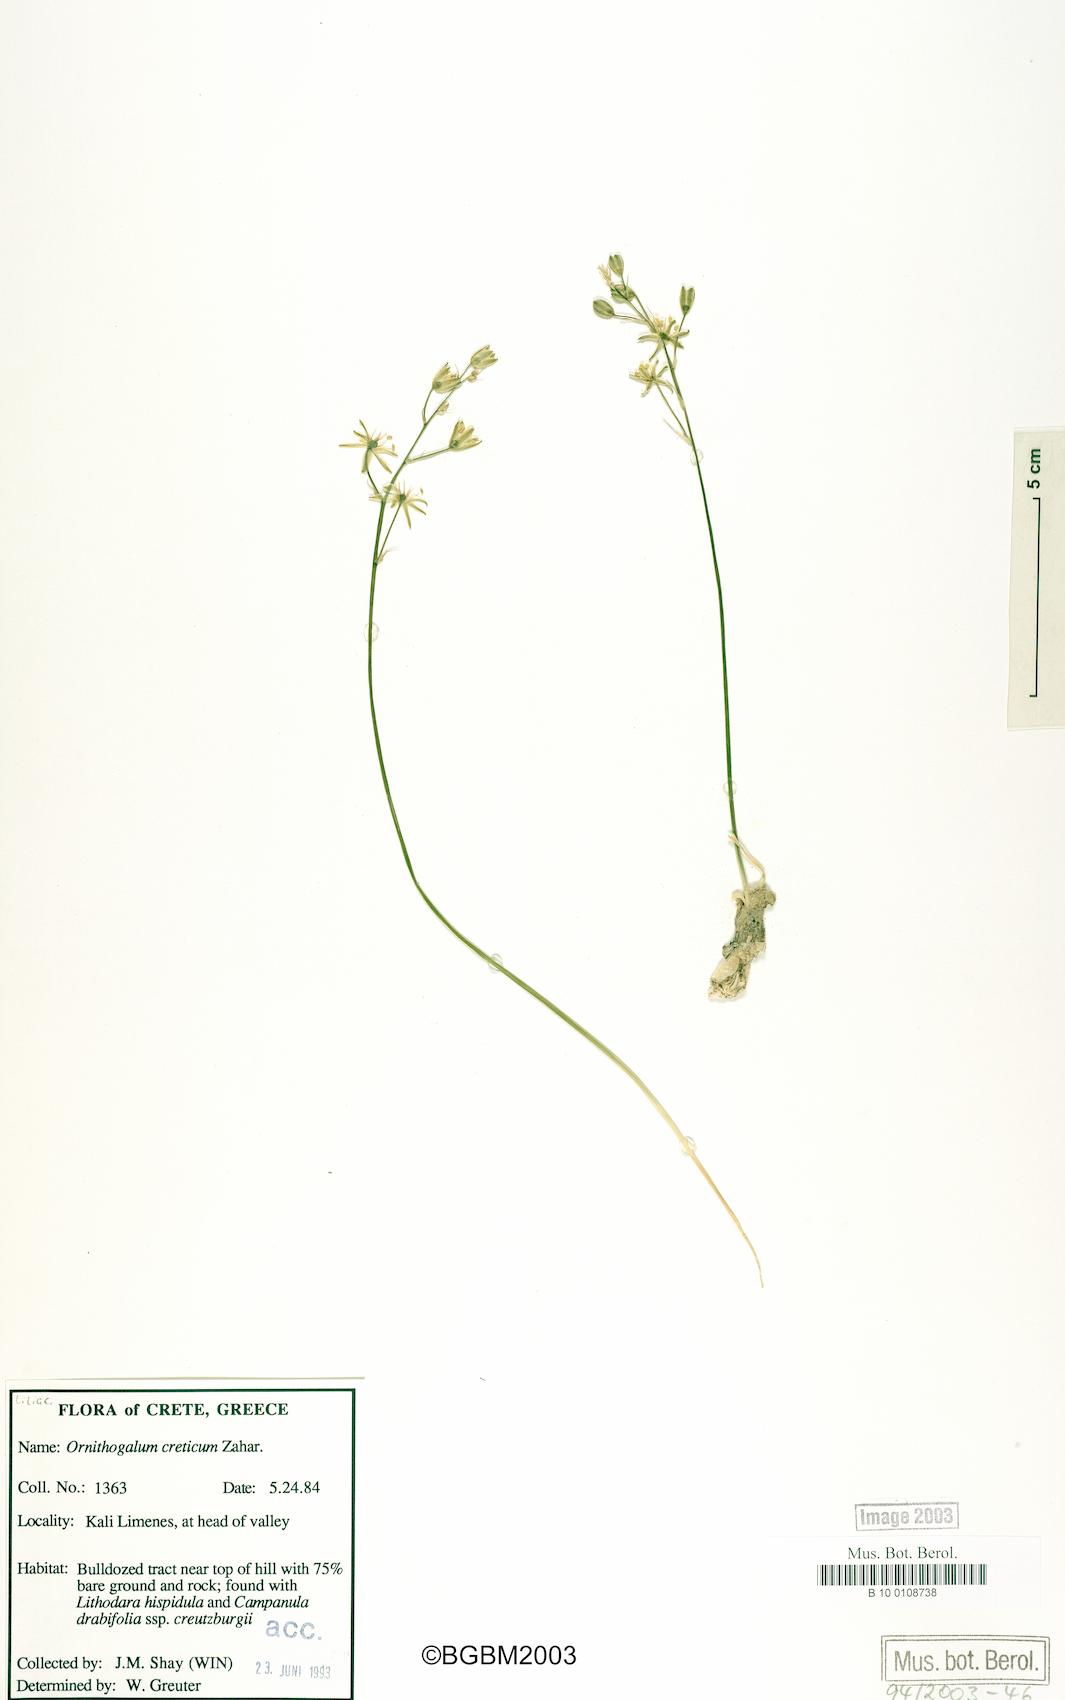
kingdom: Plantae
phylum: Tracheophyta
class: Liliopsida
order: Asparagales
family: Asparagaceae
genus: Ornithogalum
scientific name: Ornithogalum creticum
